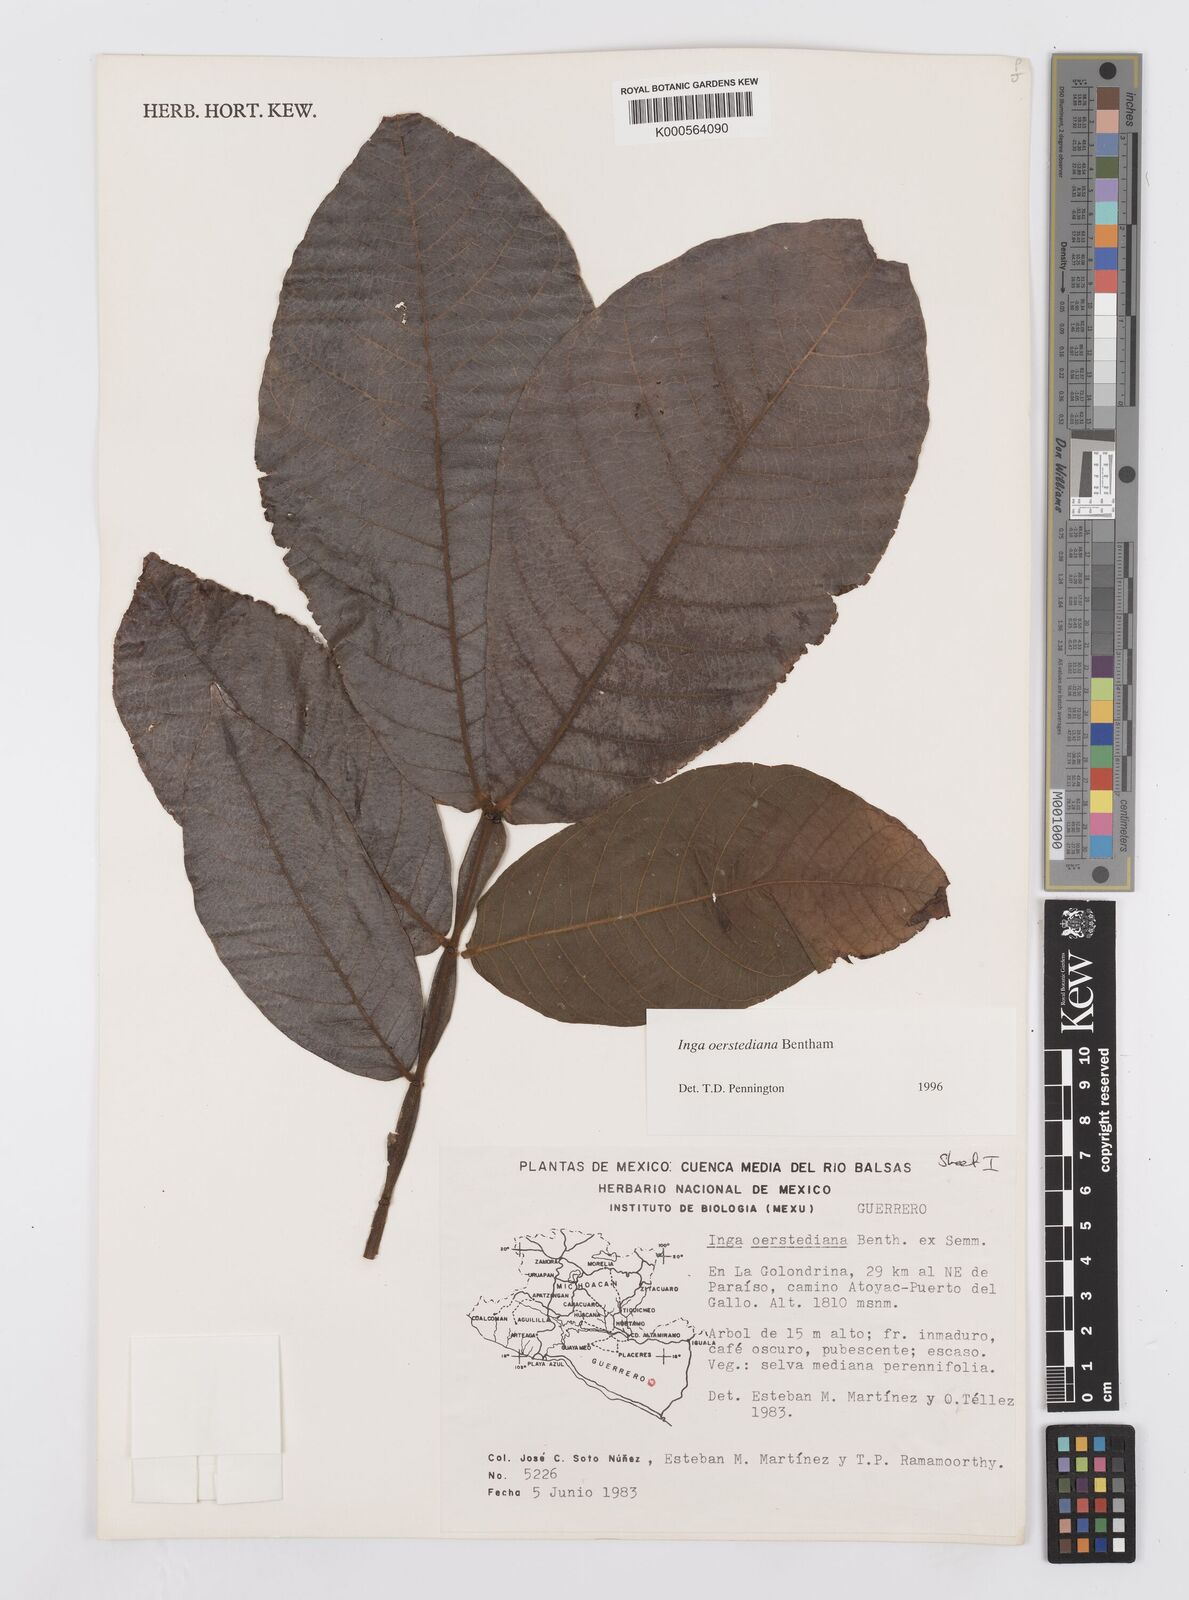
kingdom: Plantae
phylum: Tracheophyta
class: Magnoliopsida
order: Fabales
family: Fabaceae
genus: Inga
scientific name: Inga oerstediana
